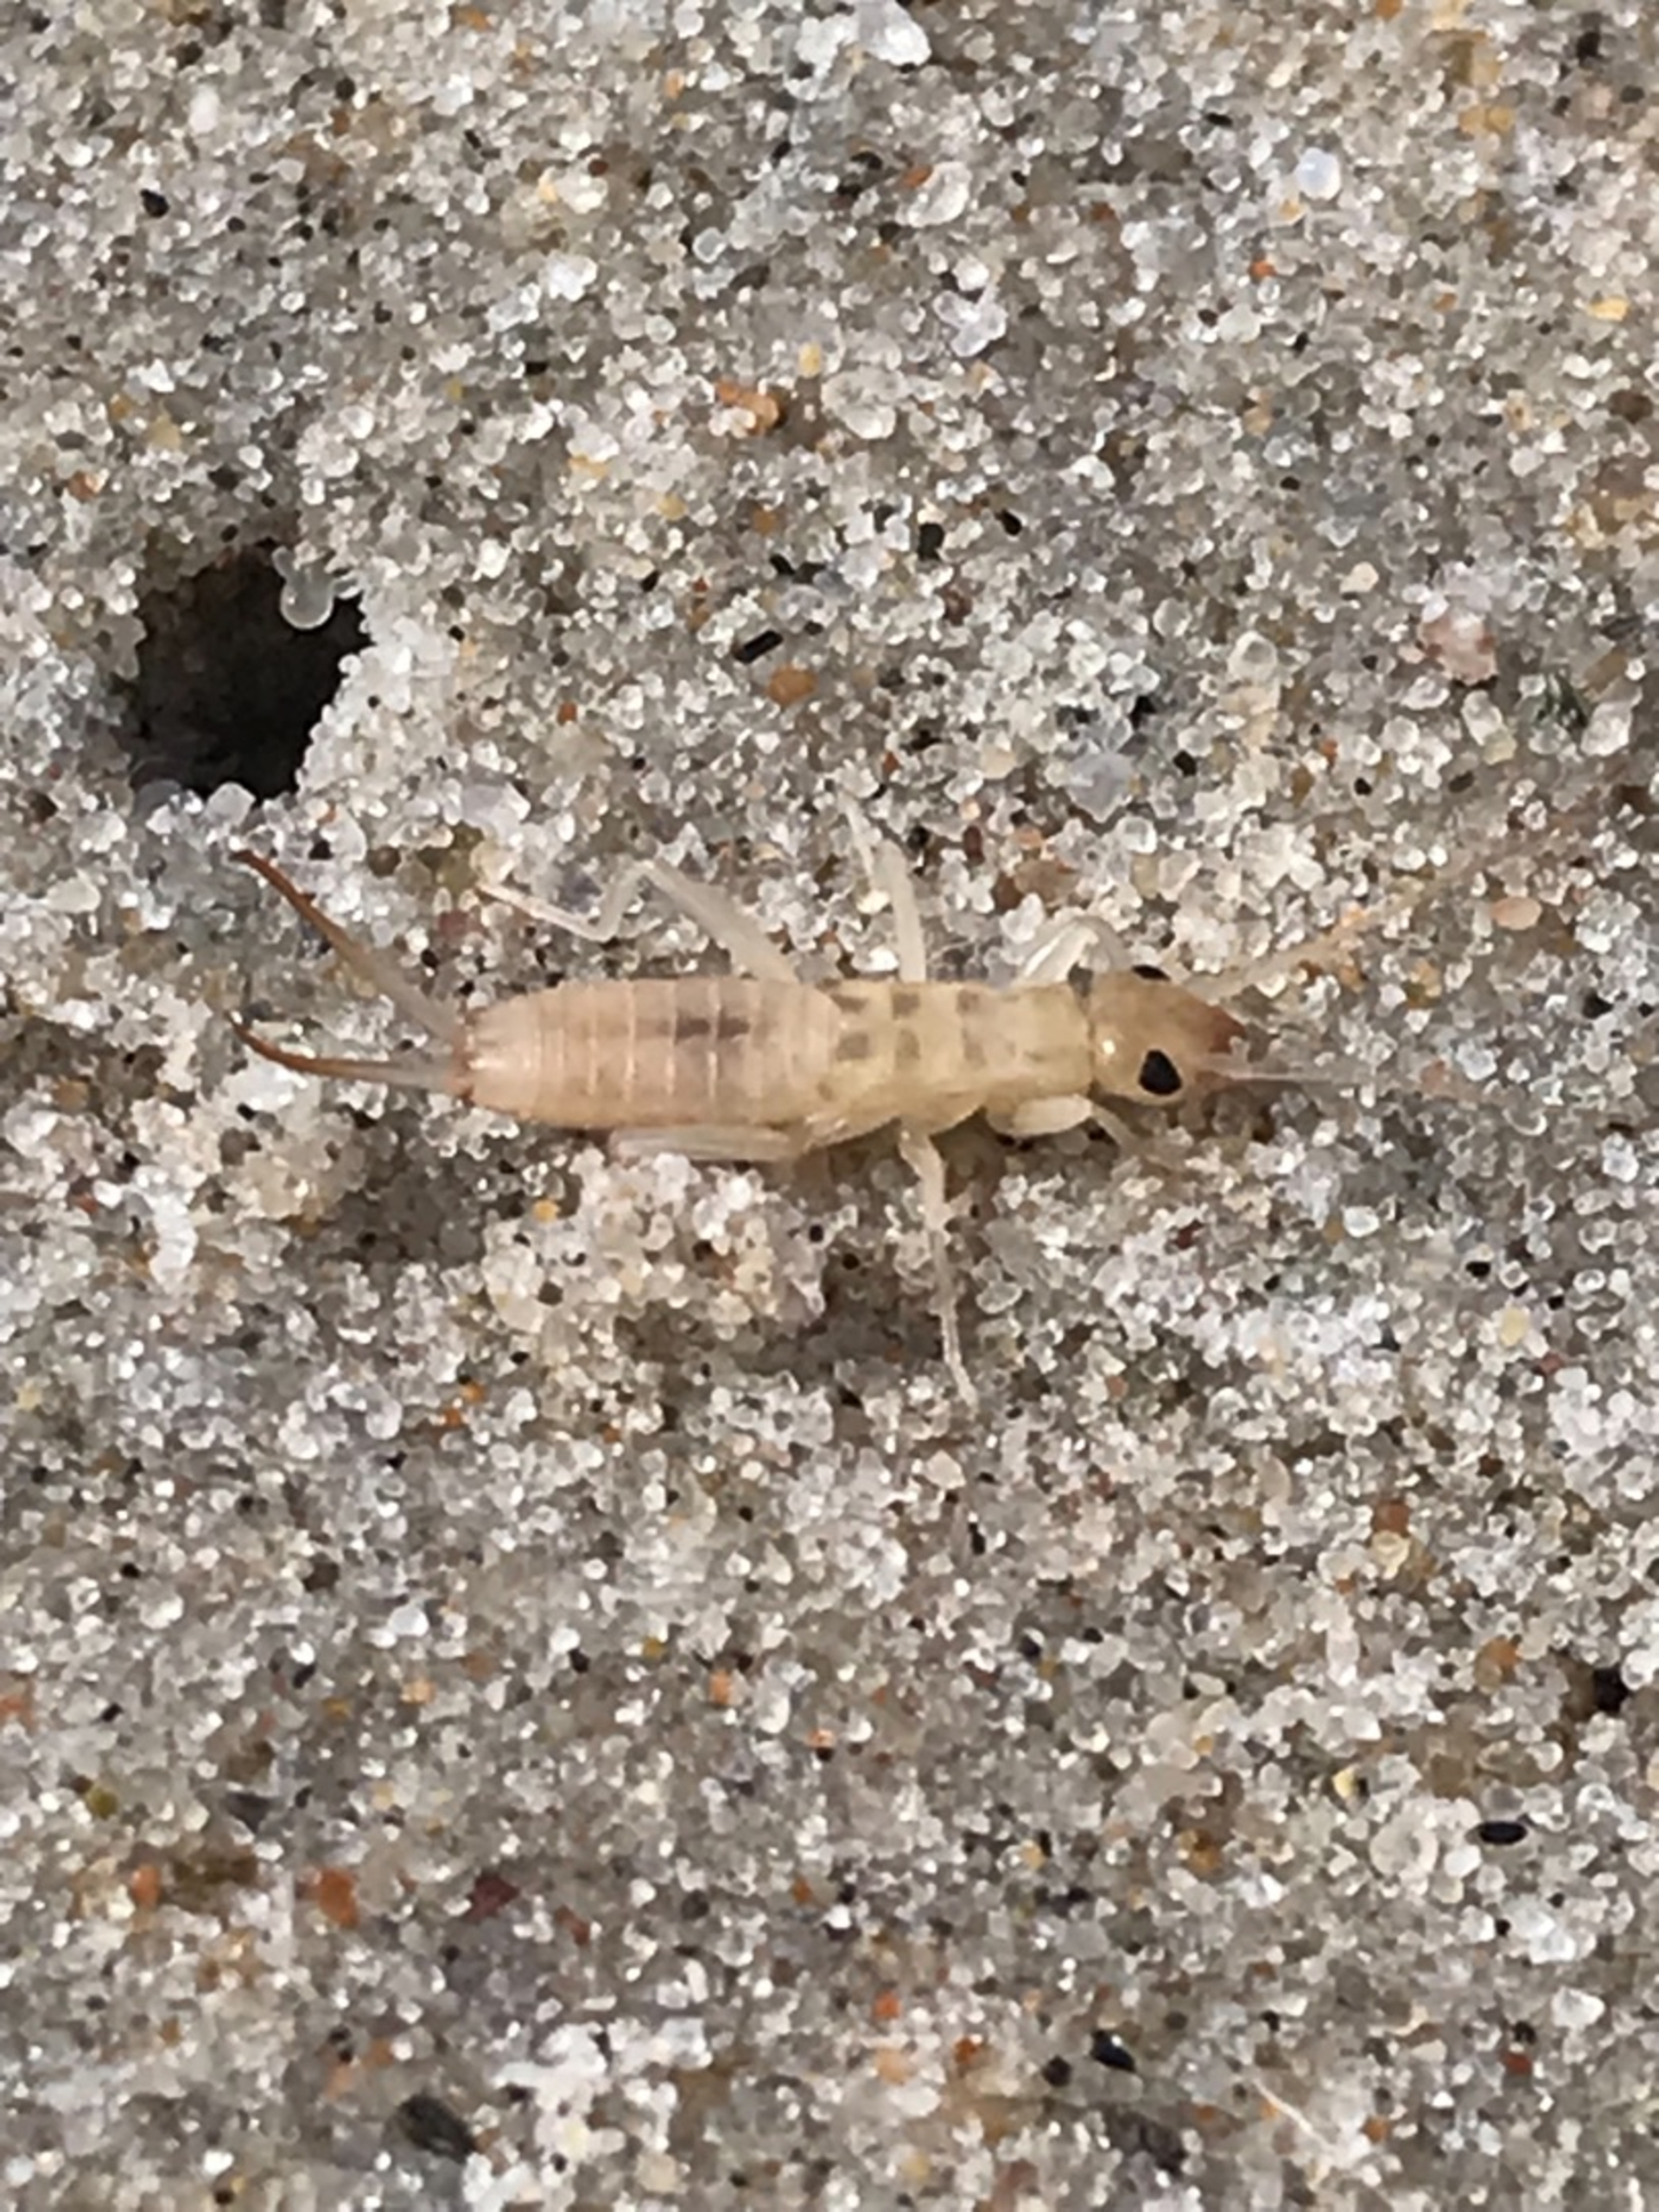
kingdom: Animalia
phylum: Arthropoda
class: Insecta
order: Dermaptera
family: Labiduridae
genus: Labidura
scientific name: Labidura riparia
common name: Sandørentvist
